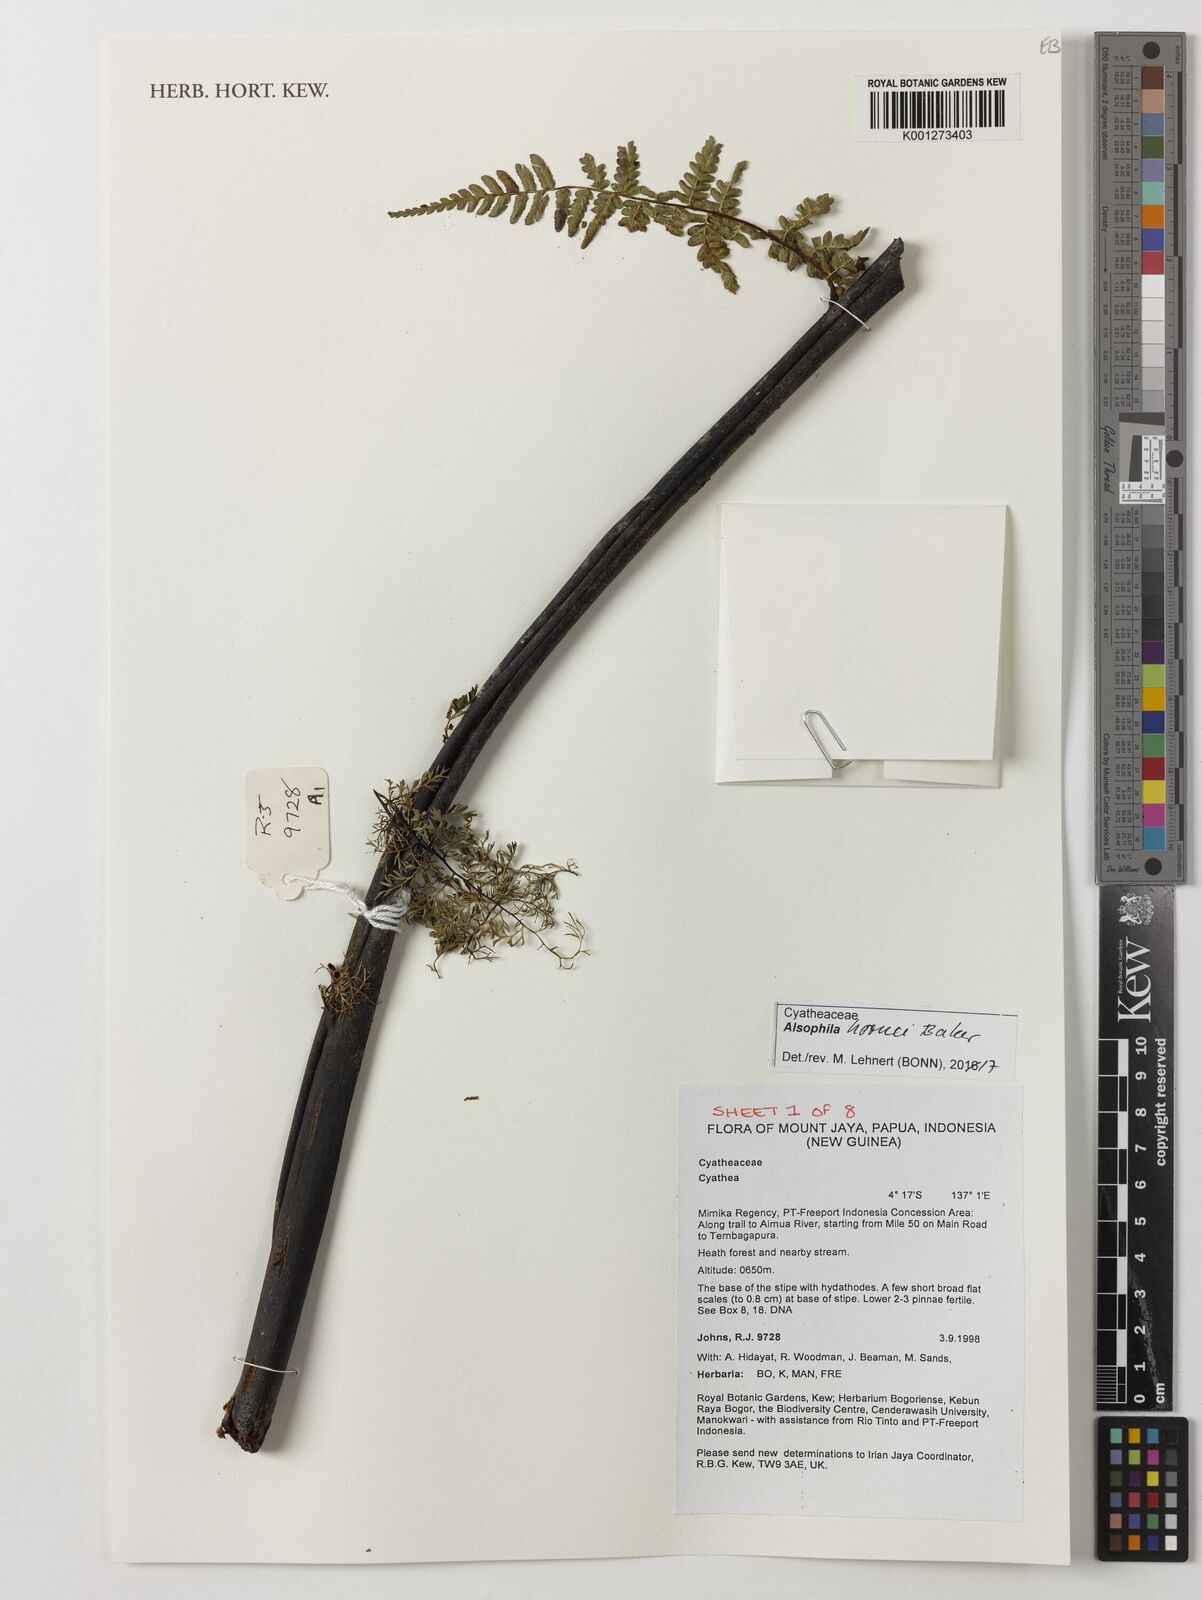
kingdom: Plantae
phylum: Tracheophyta
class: Polypodiopsida
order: Cyatheales
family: Cyatheaceae
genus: Gymnosphaera
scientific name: Gymnosphaera hornei
